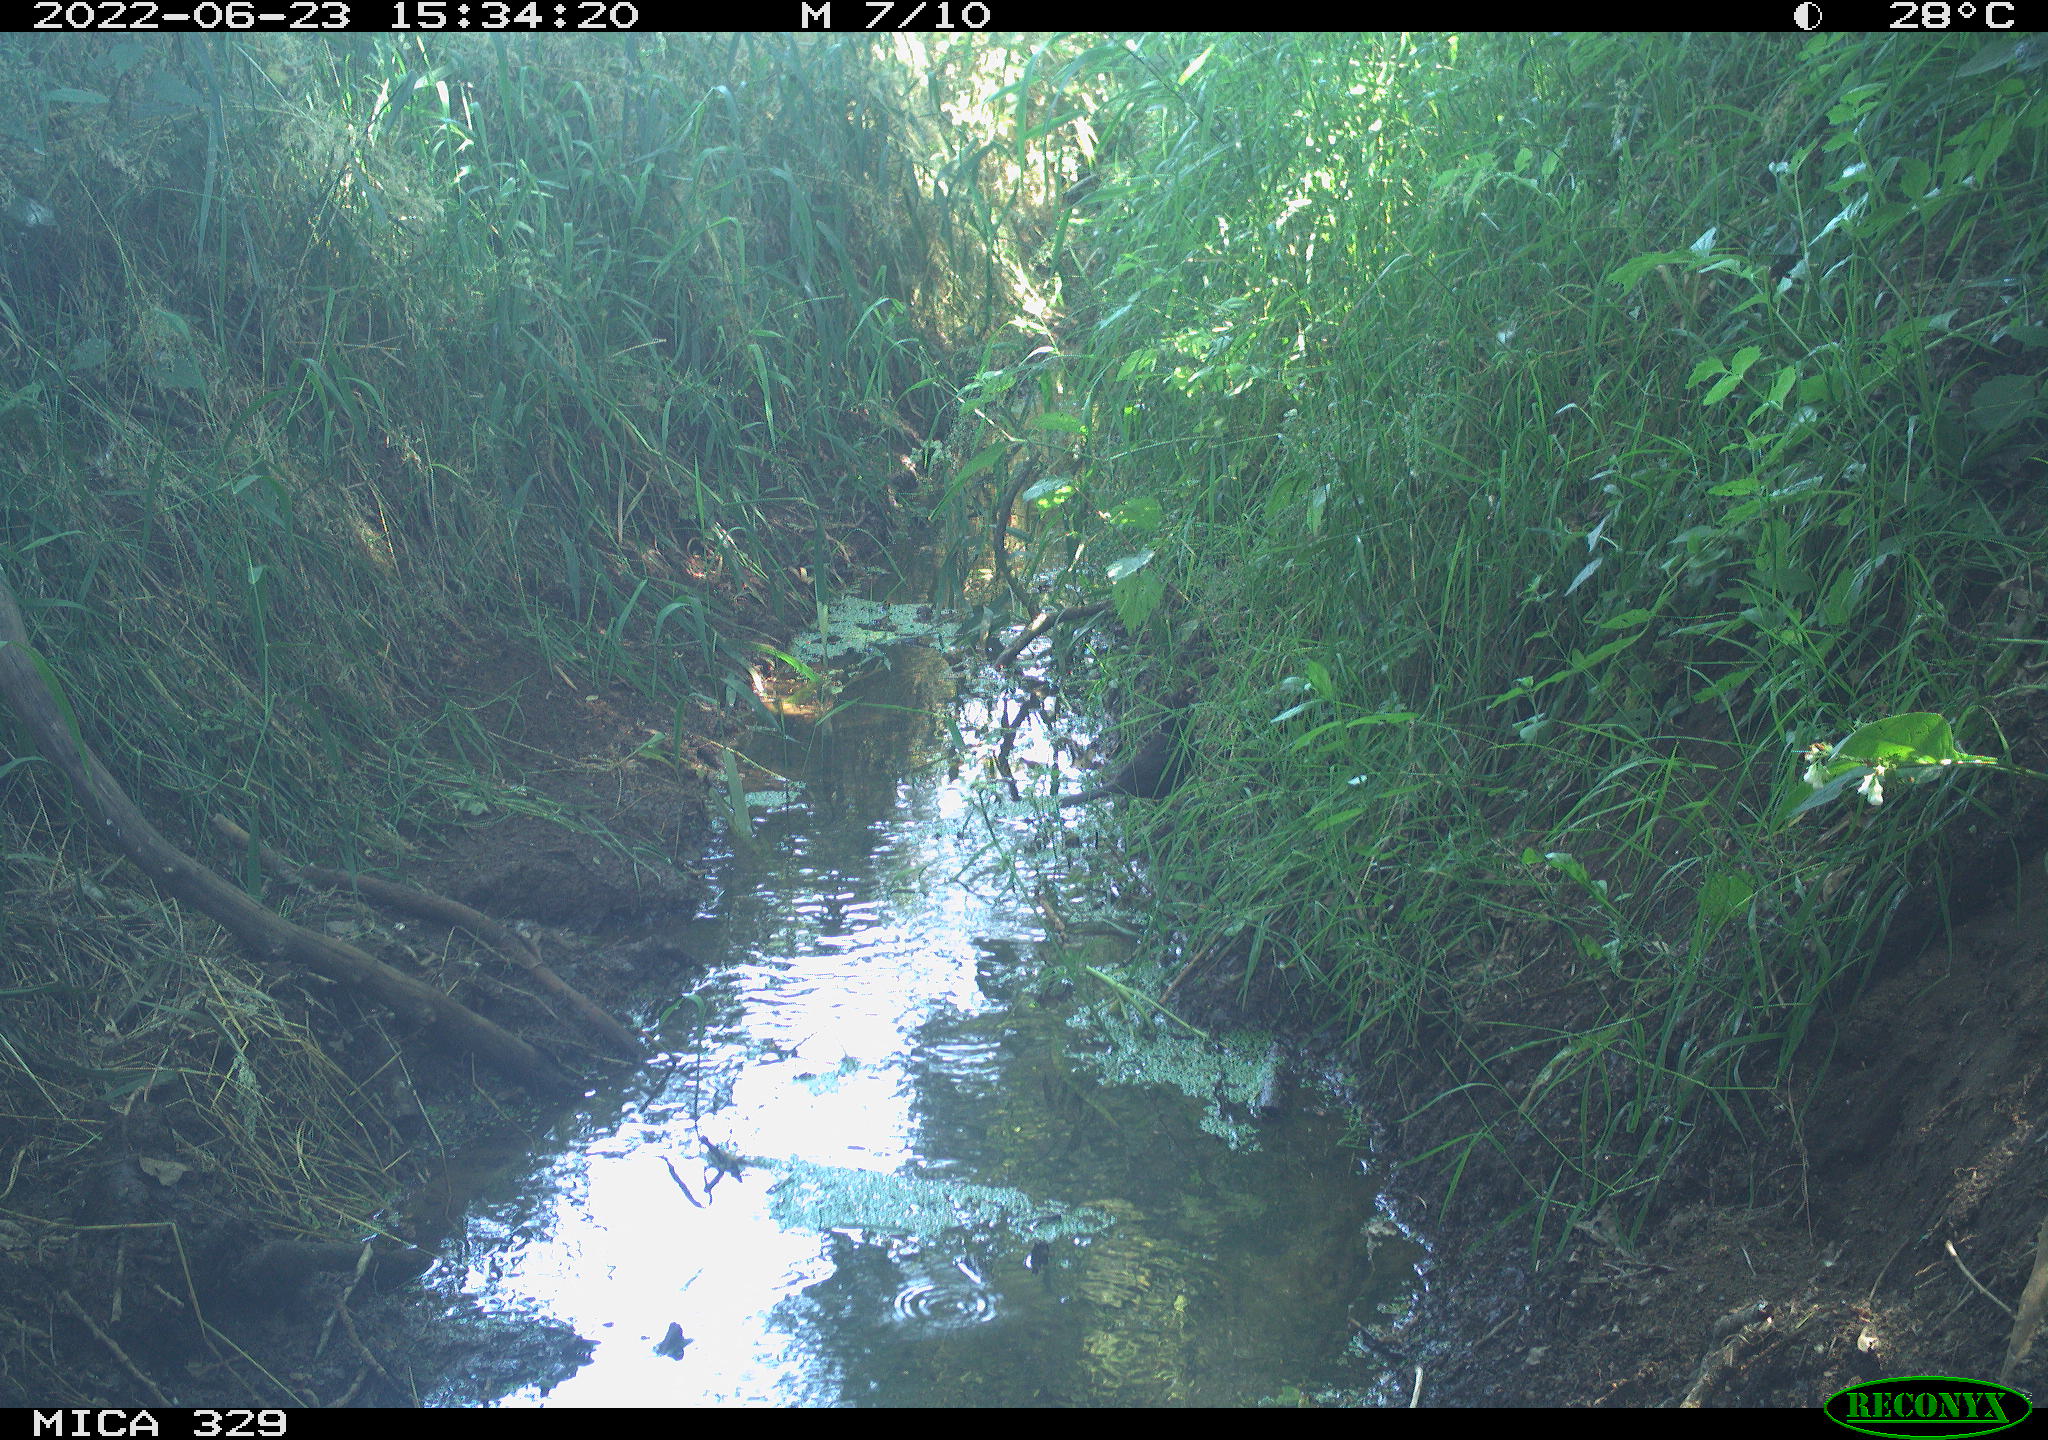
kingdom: Animalia
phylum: Chordata
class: Aves
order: Passeriformes
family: Turdidae
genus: Turdus
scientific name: Turdus merula
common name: Common blackbird
